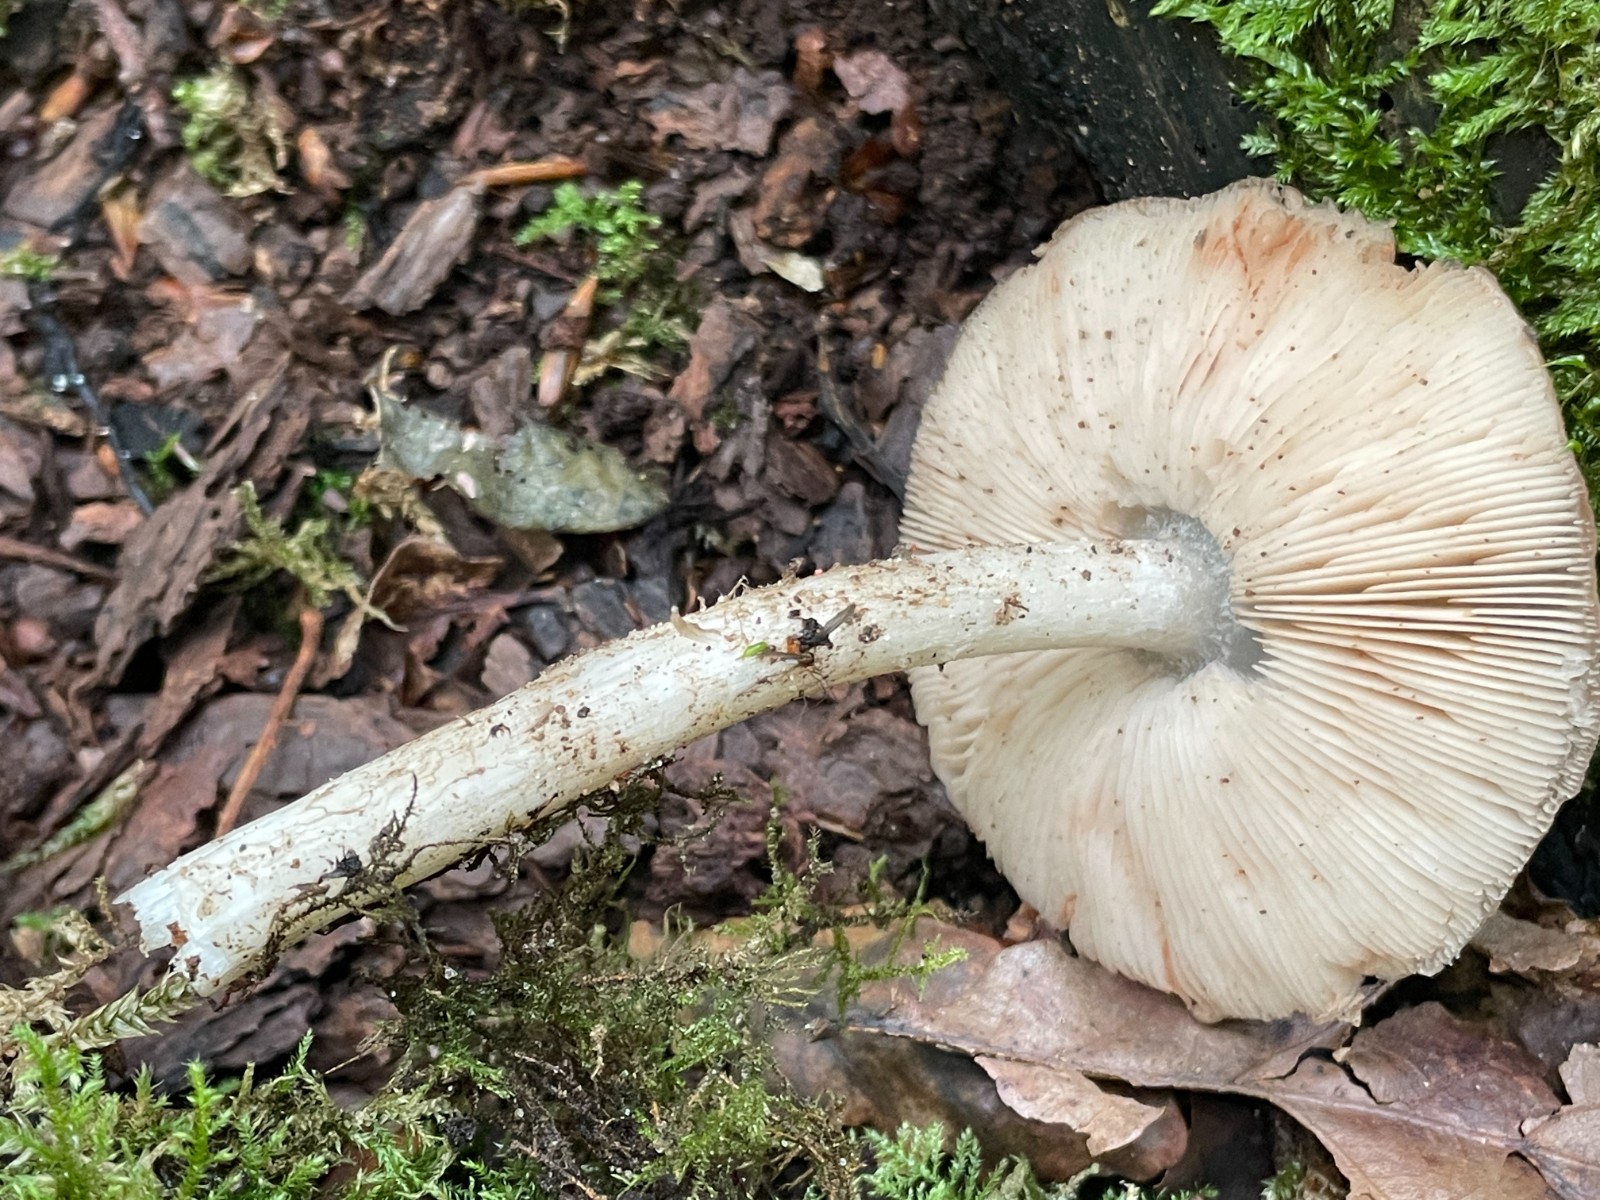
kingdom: Fungi
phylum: Basidiomycota
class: Agaricomycetes
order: Agaricales
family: Pluteaceae
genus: Pluteus
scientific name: Pluteus cervinus
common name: sodfarvet skærmhat
